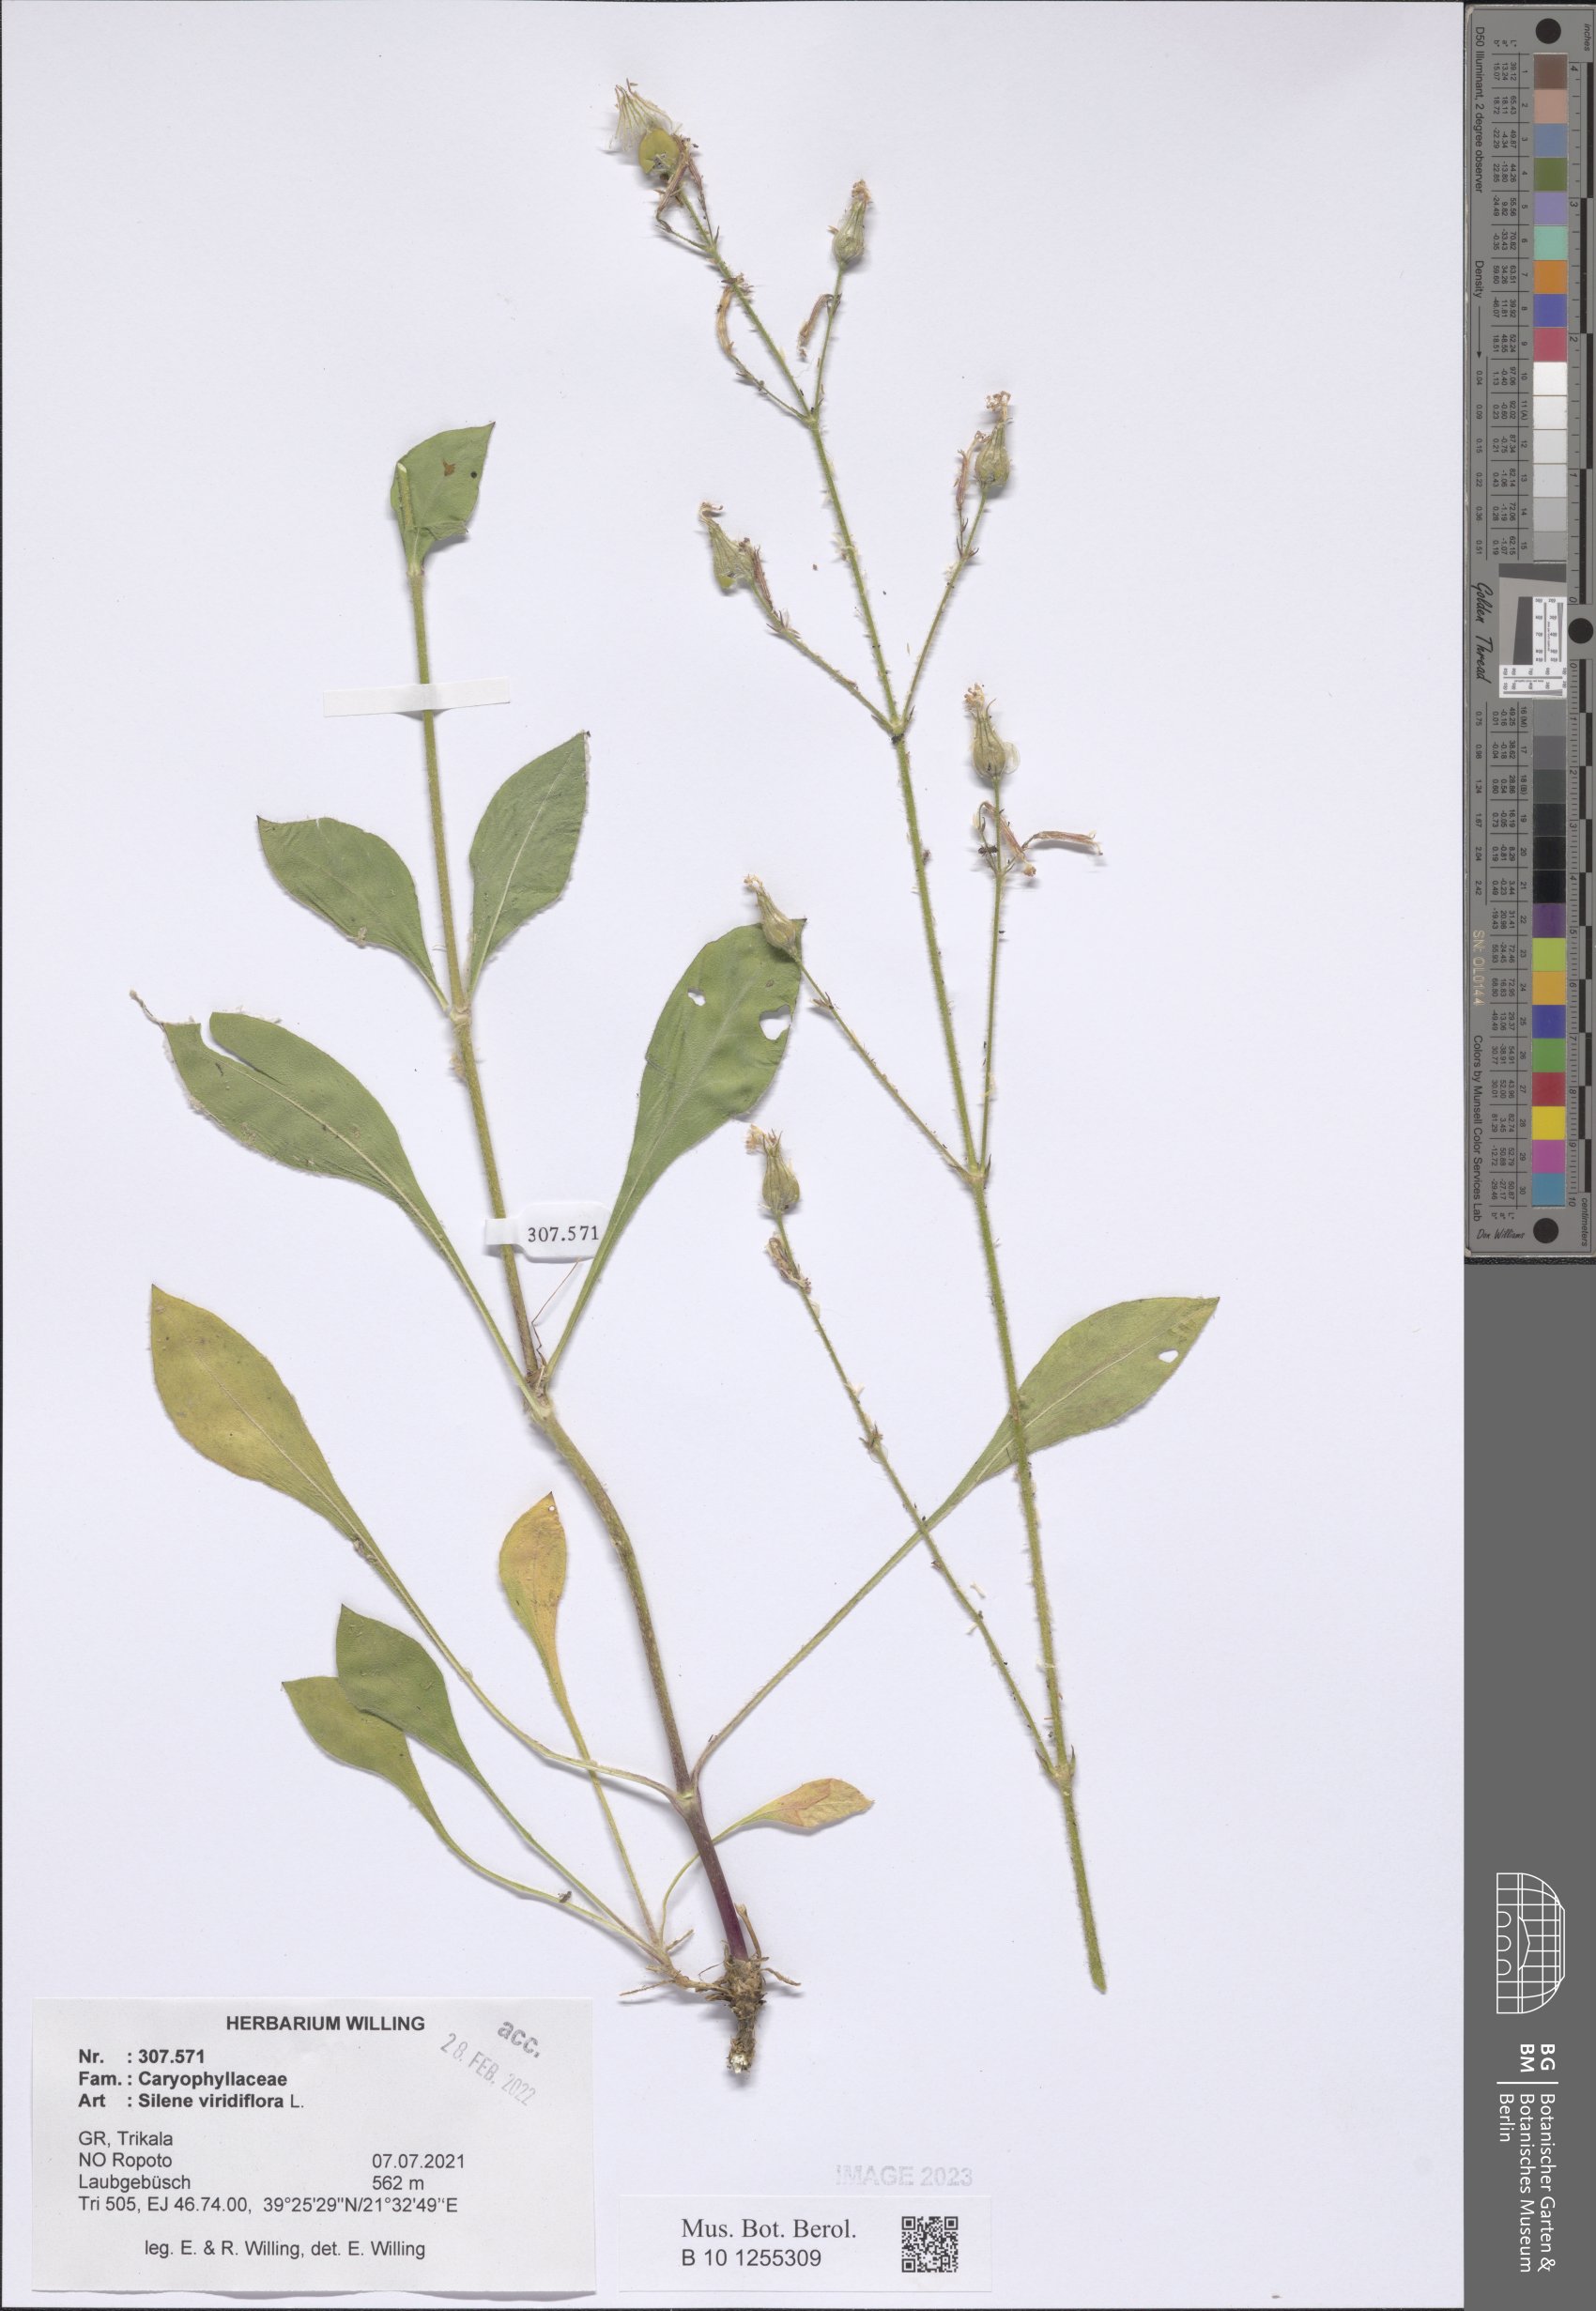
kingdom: Plantae
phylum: Tracheophyta
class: Magnoliopsida
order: Caryophyllales
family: Caryophyllaceae
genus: Silene
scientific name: Silene viridiflora
